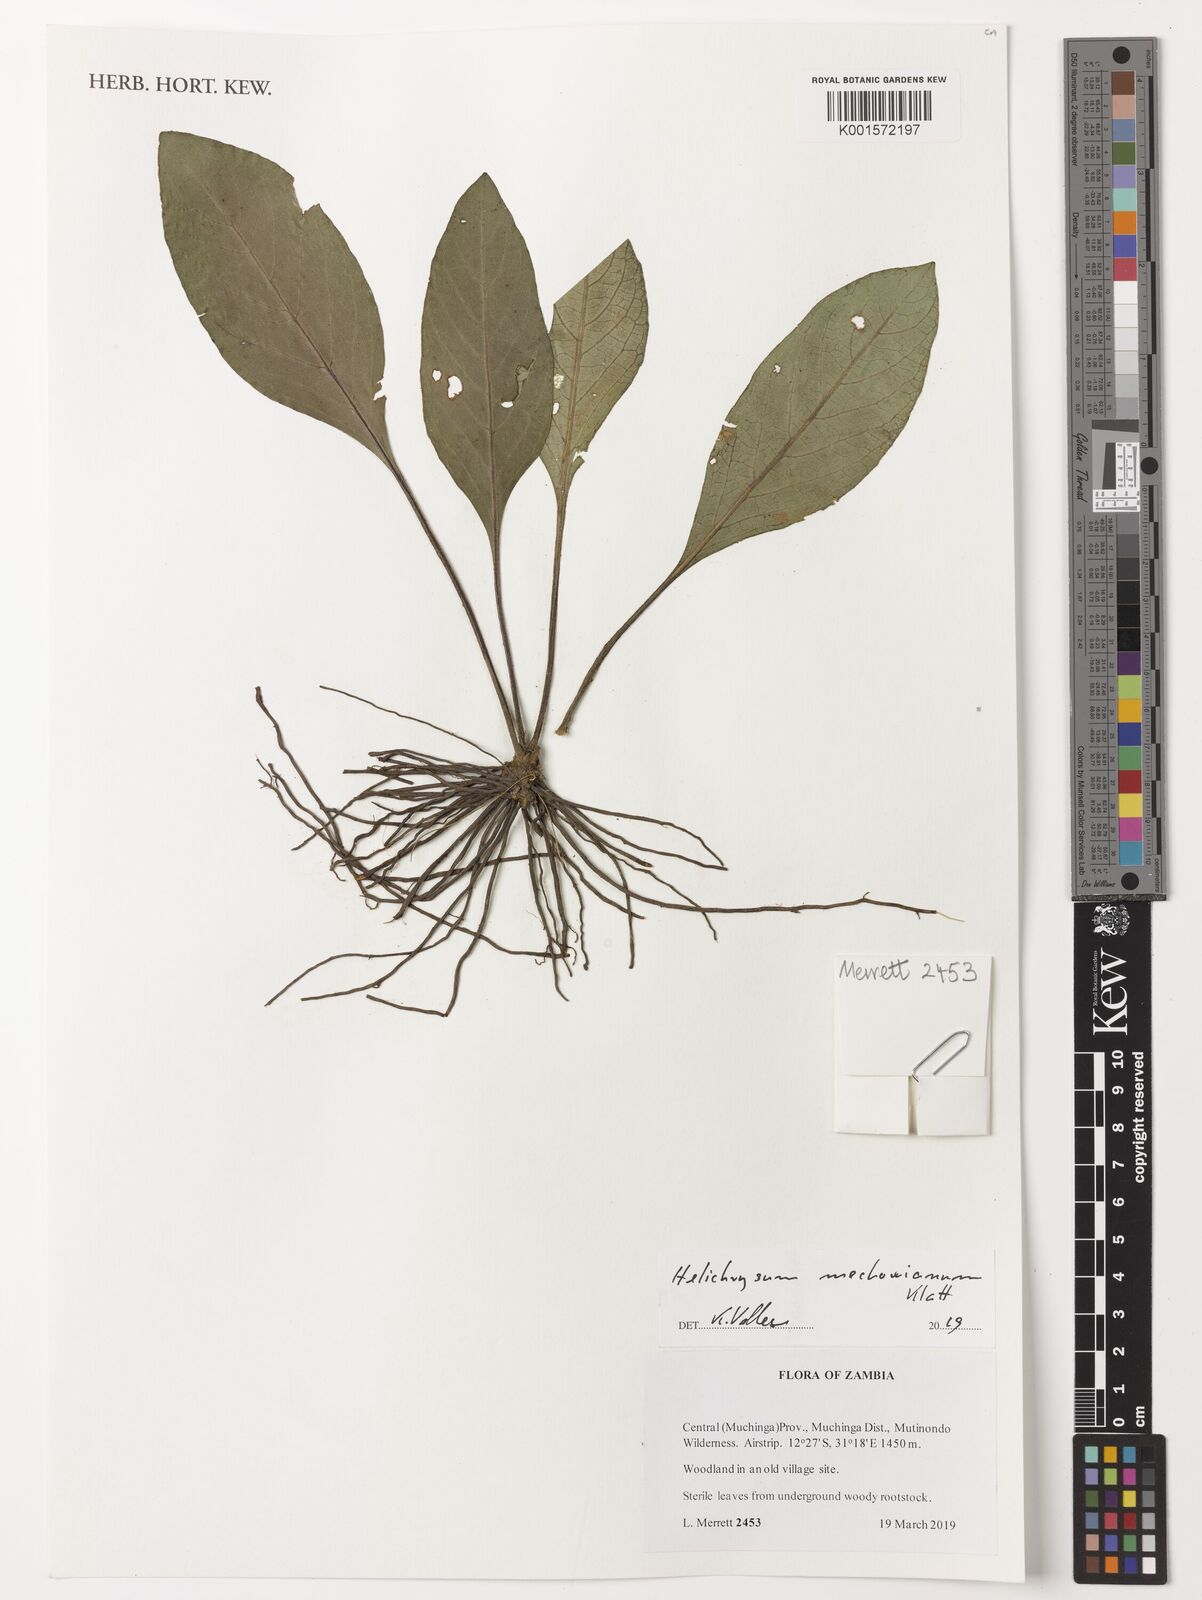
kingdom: Plantae
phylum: Tracheophyta
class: Magnoliopsida
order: Asterales
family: Asteraceae
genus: Helichrysum
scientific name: Helichrysum mechowianum
